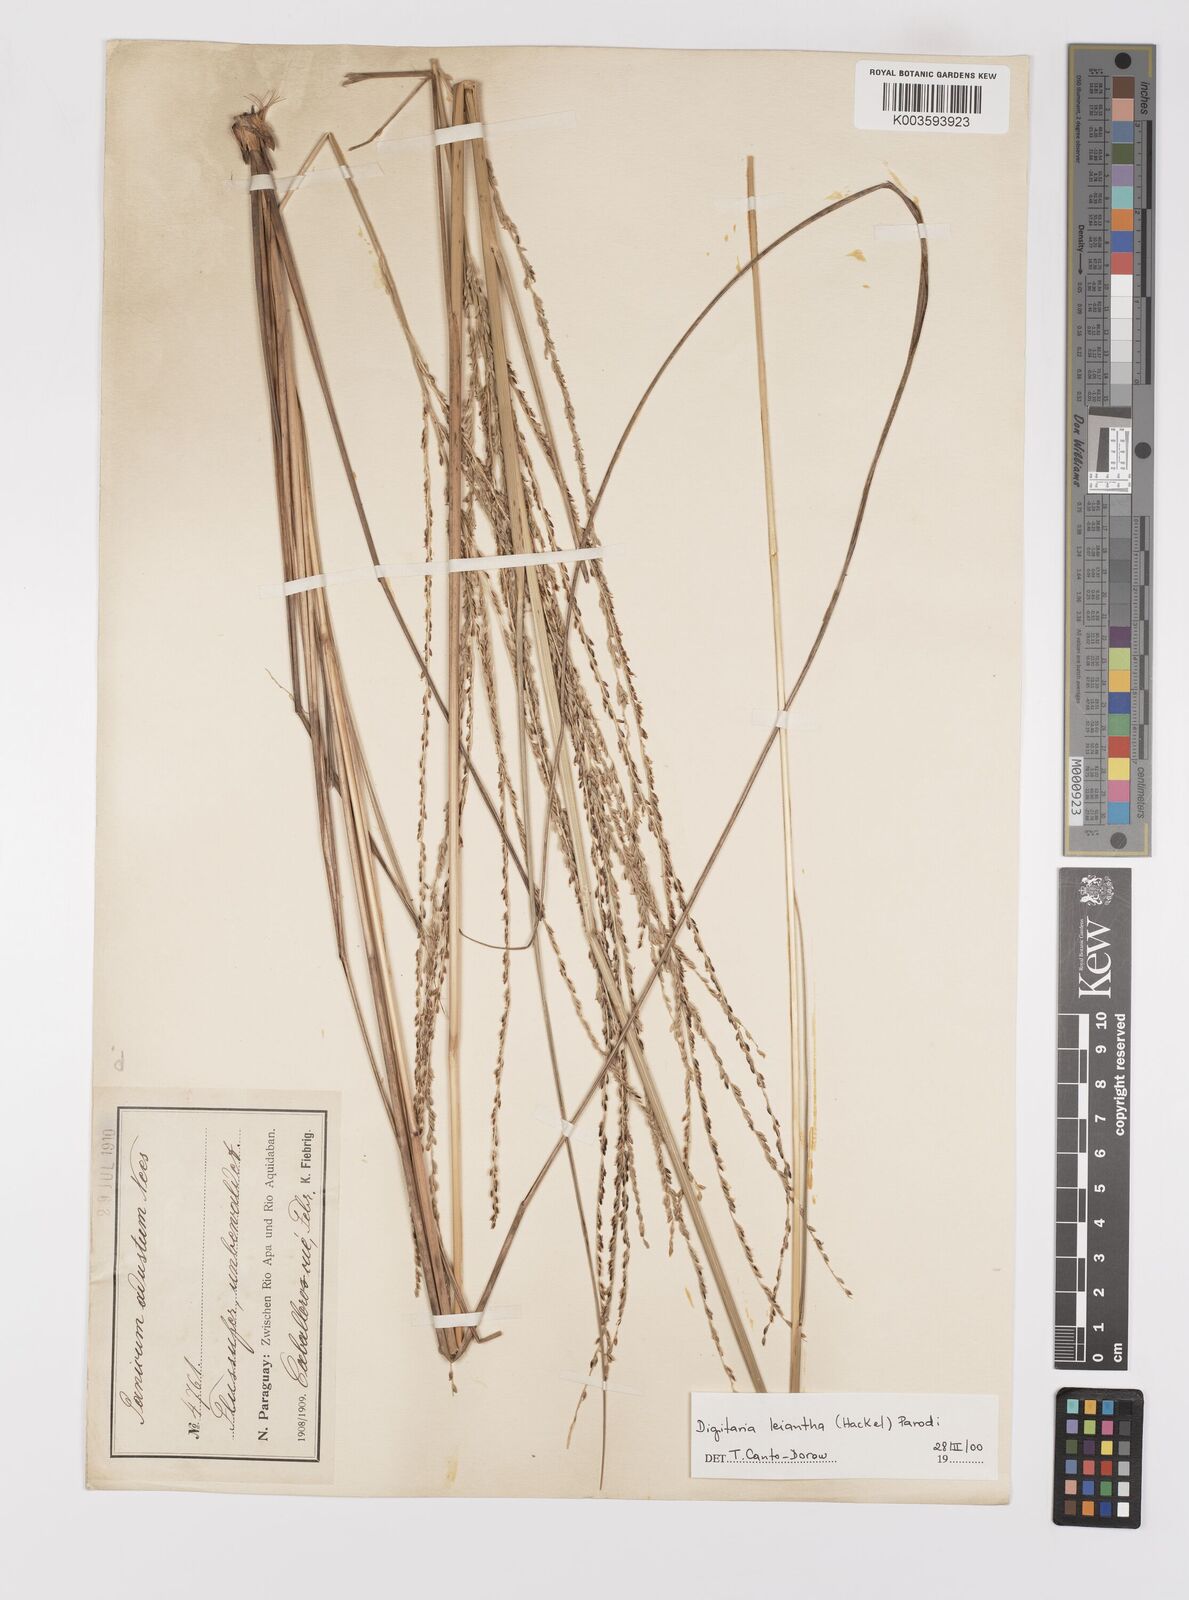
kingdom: Plantae
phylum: Tracheophyta
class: Liliopsida
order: Poales
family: Poaceae
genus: Digitaria
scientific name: Digitaria leiantha
